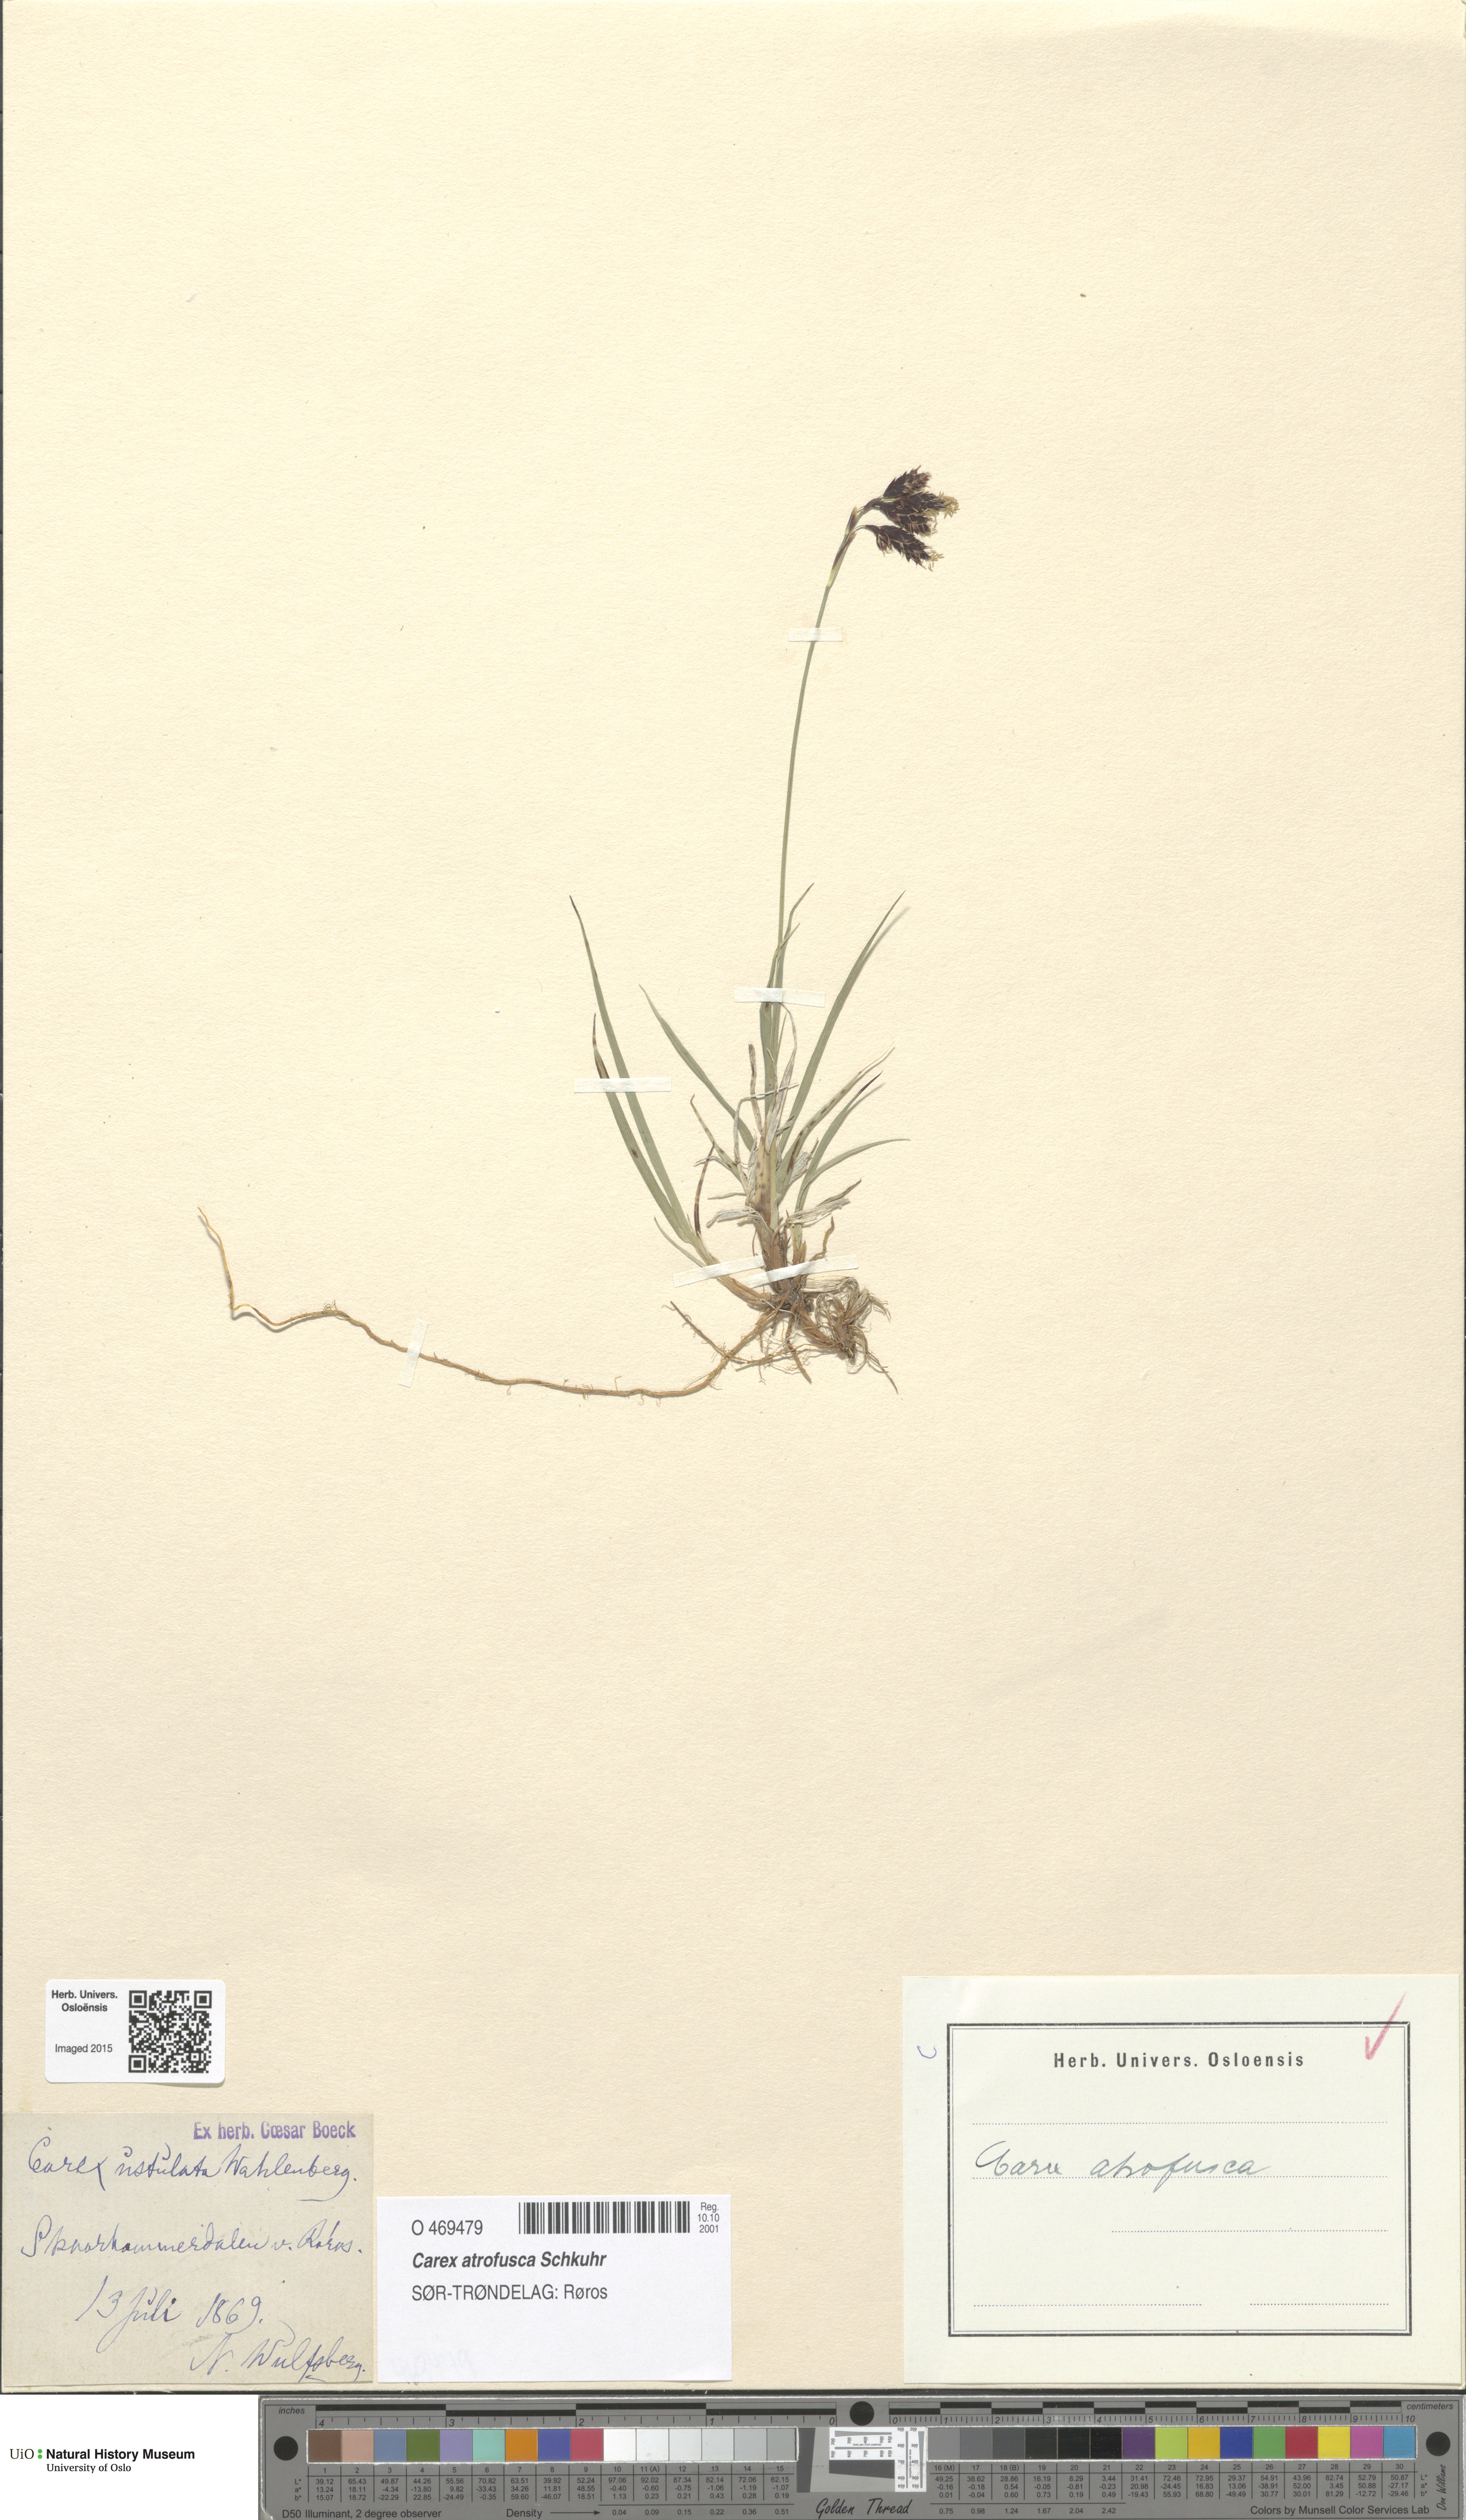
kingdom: Plantae
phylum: Tracheophyta
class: Liliopsida
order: Poales
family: Cyperaceae
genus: Carex
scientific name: Carex atrofusca
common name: Scorched alpine-sedge
